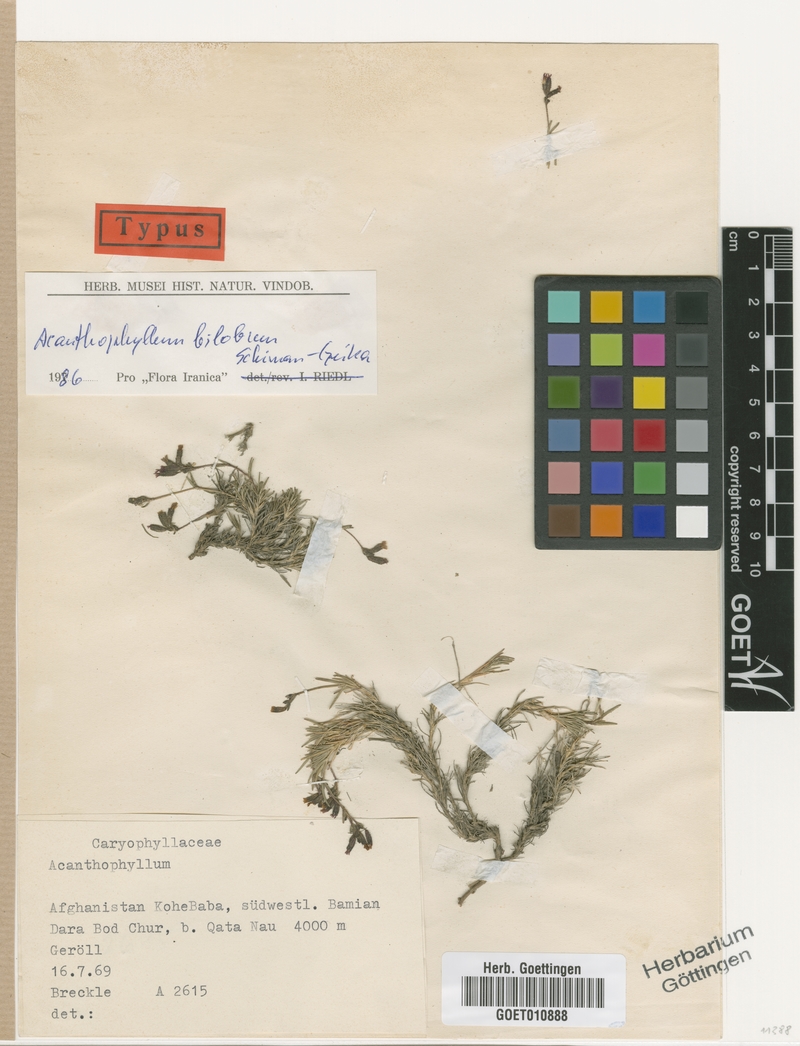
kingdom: Plantae
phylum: Tracheophyta
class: Magnoliopsida
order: Caryophyllales
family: Caryophyllaceae
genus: Acanthophyllum
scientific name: Acanthophyllum bilobum
